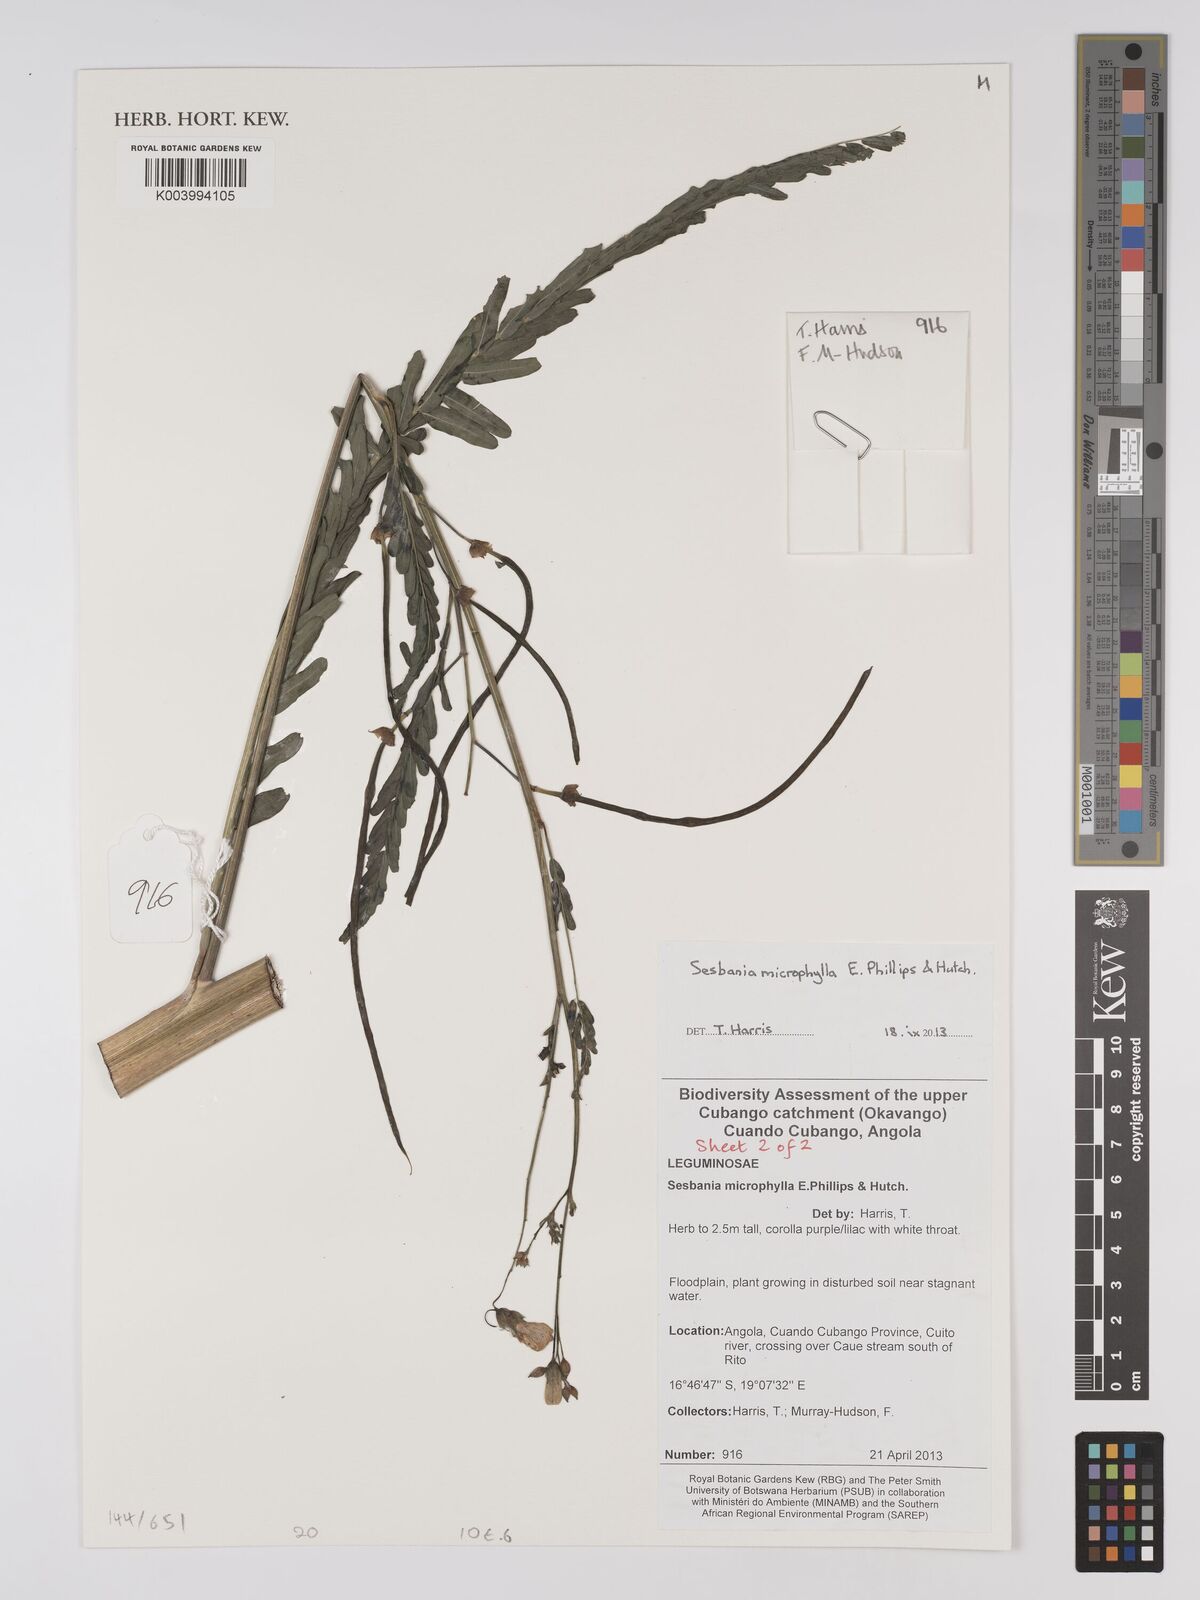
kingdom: Plantae
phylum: Tracheophyta
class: Magnoliopsida
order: Fabales
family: Fabaceae
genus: Sesbania
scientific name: Sesbania microphylla
